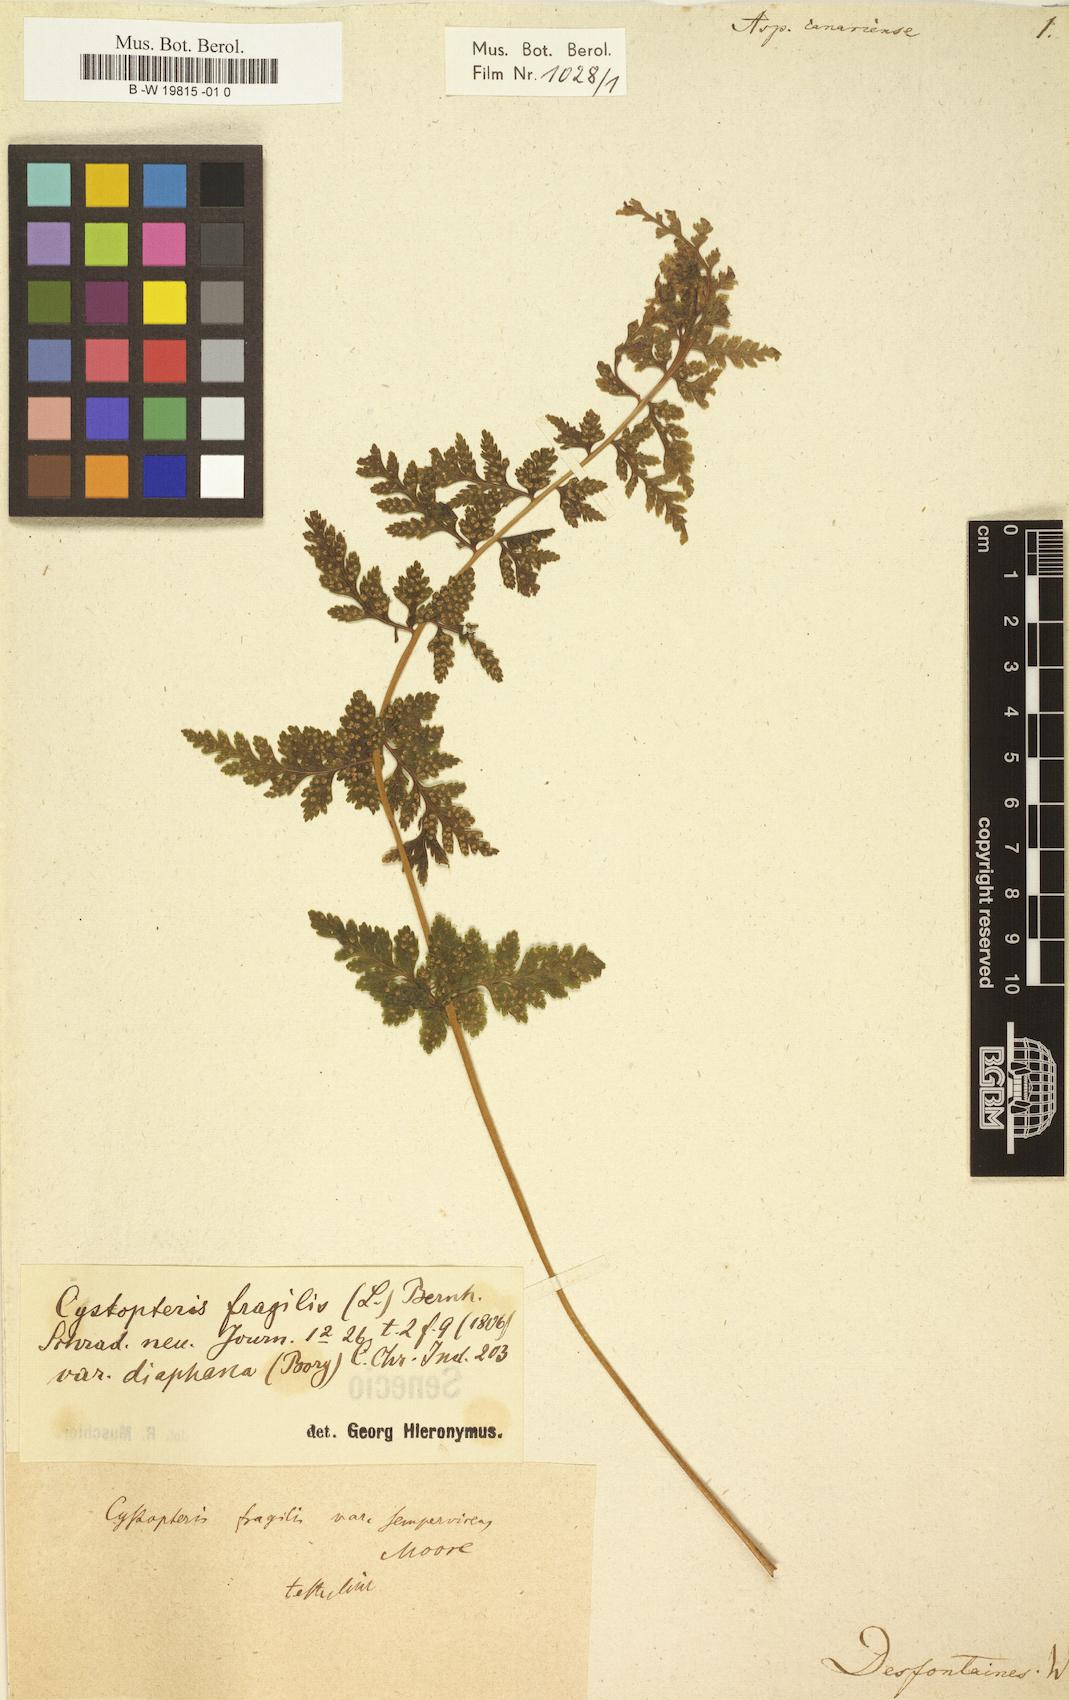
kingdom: Plantae
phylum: Tracheophyta
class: Polypodiopsida
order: Polypodiales
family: Dryopteridaceae
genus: Dryopteris
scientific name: Dryopteris oligodonta
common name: Canarian male-fern
